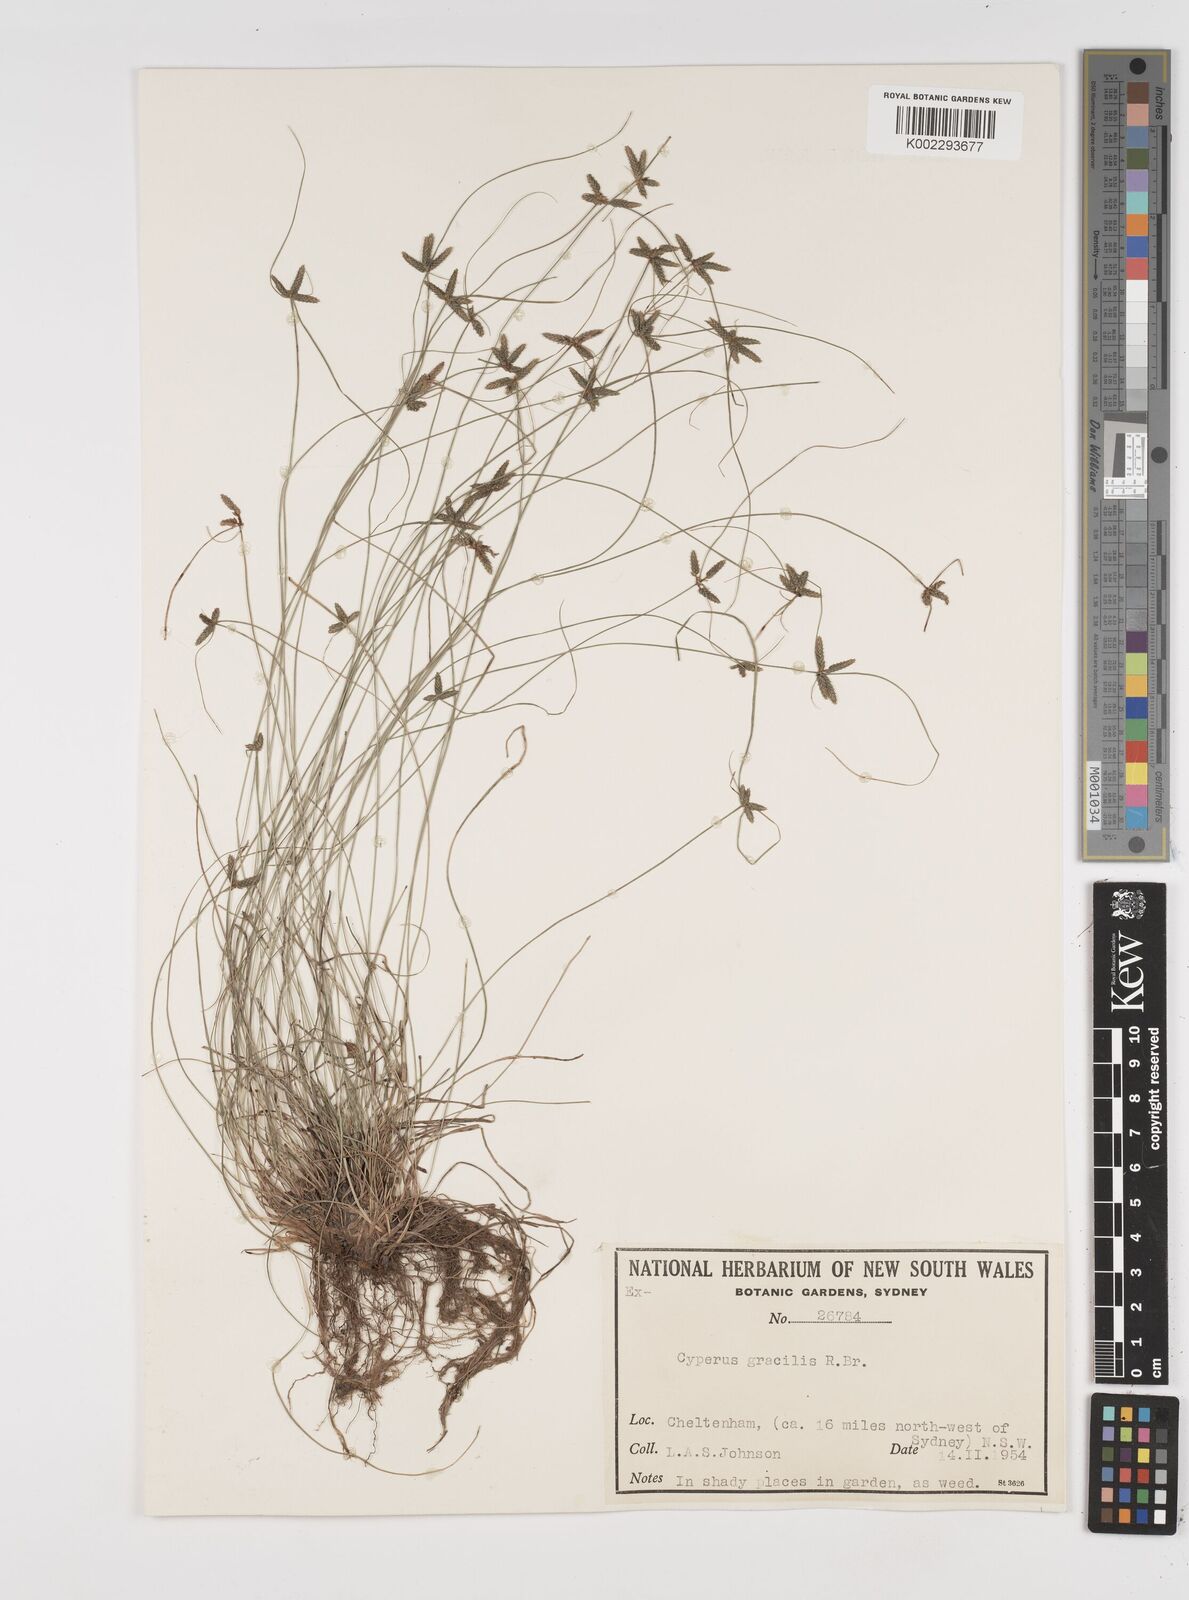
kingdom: Plantae
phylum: Tracheophyta
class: Liliopsida
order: Poales
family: Cyperaceae
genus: Cyperus
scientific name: Cyperus gracilis
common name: Slimjim flatsedge
